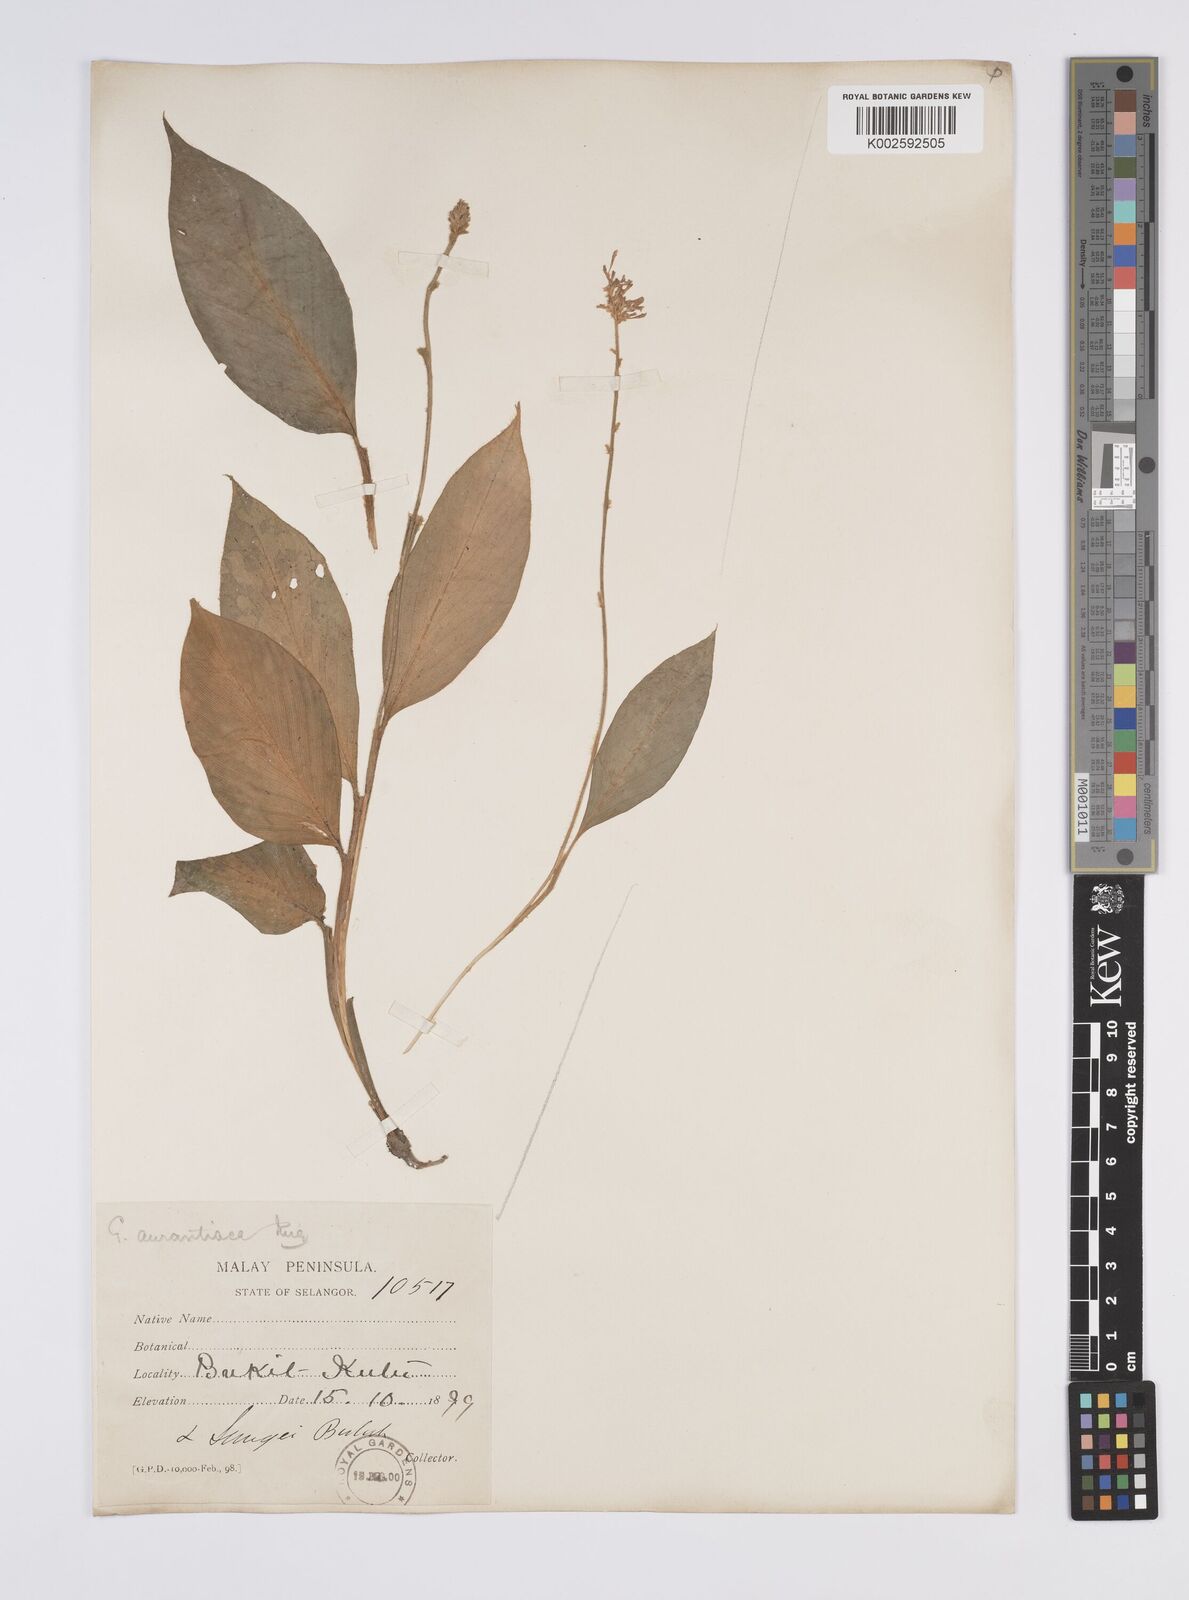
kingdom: Plantae
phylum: Tracheophyta
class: Liliopsida
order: Zingiberales
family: Zingiberaceae
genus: Globba
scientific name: Globba aurantiaca
